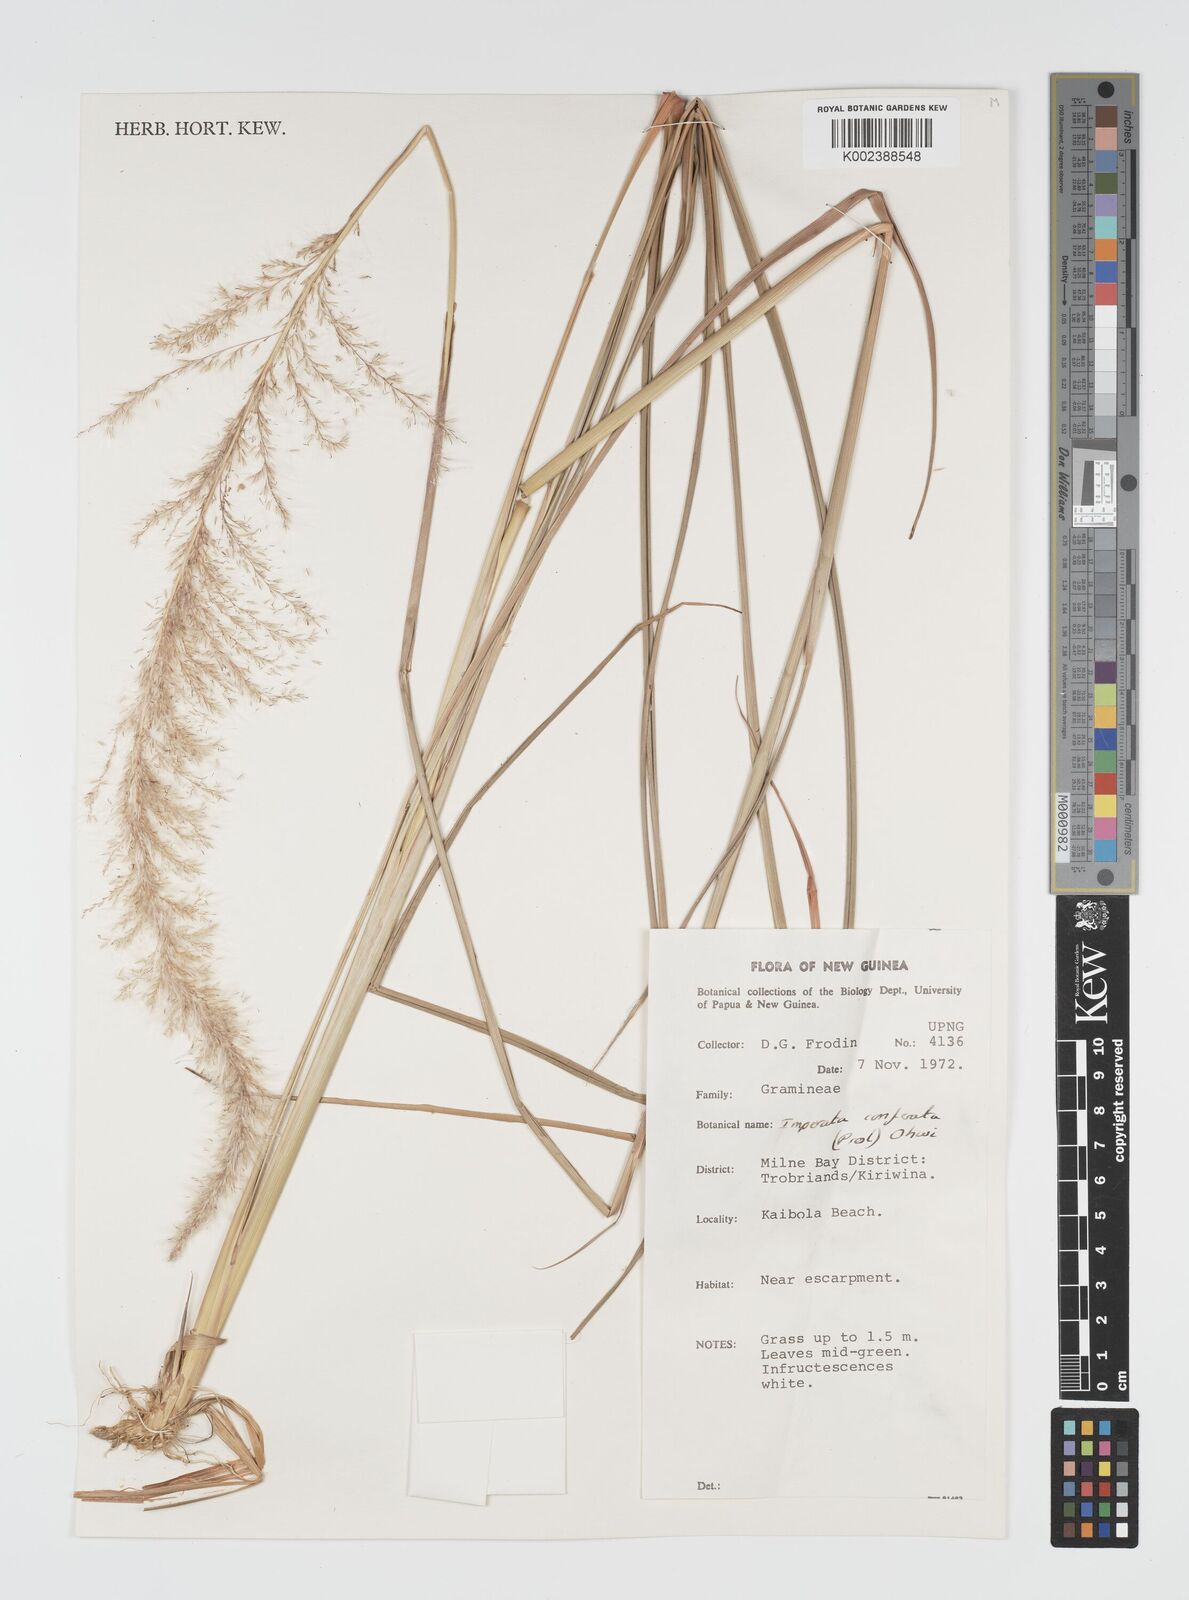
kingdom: Plantae
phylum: Tracheophyta
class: Liliopsida
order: Poales
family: Poaceae
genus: Imperata
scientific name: Imperata conferta
